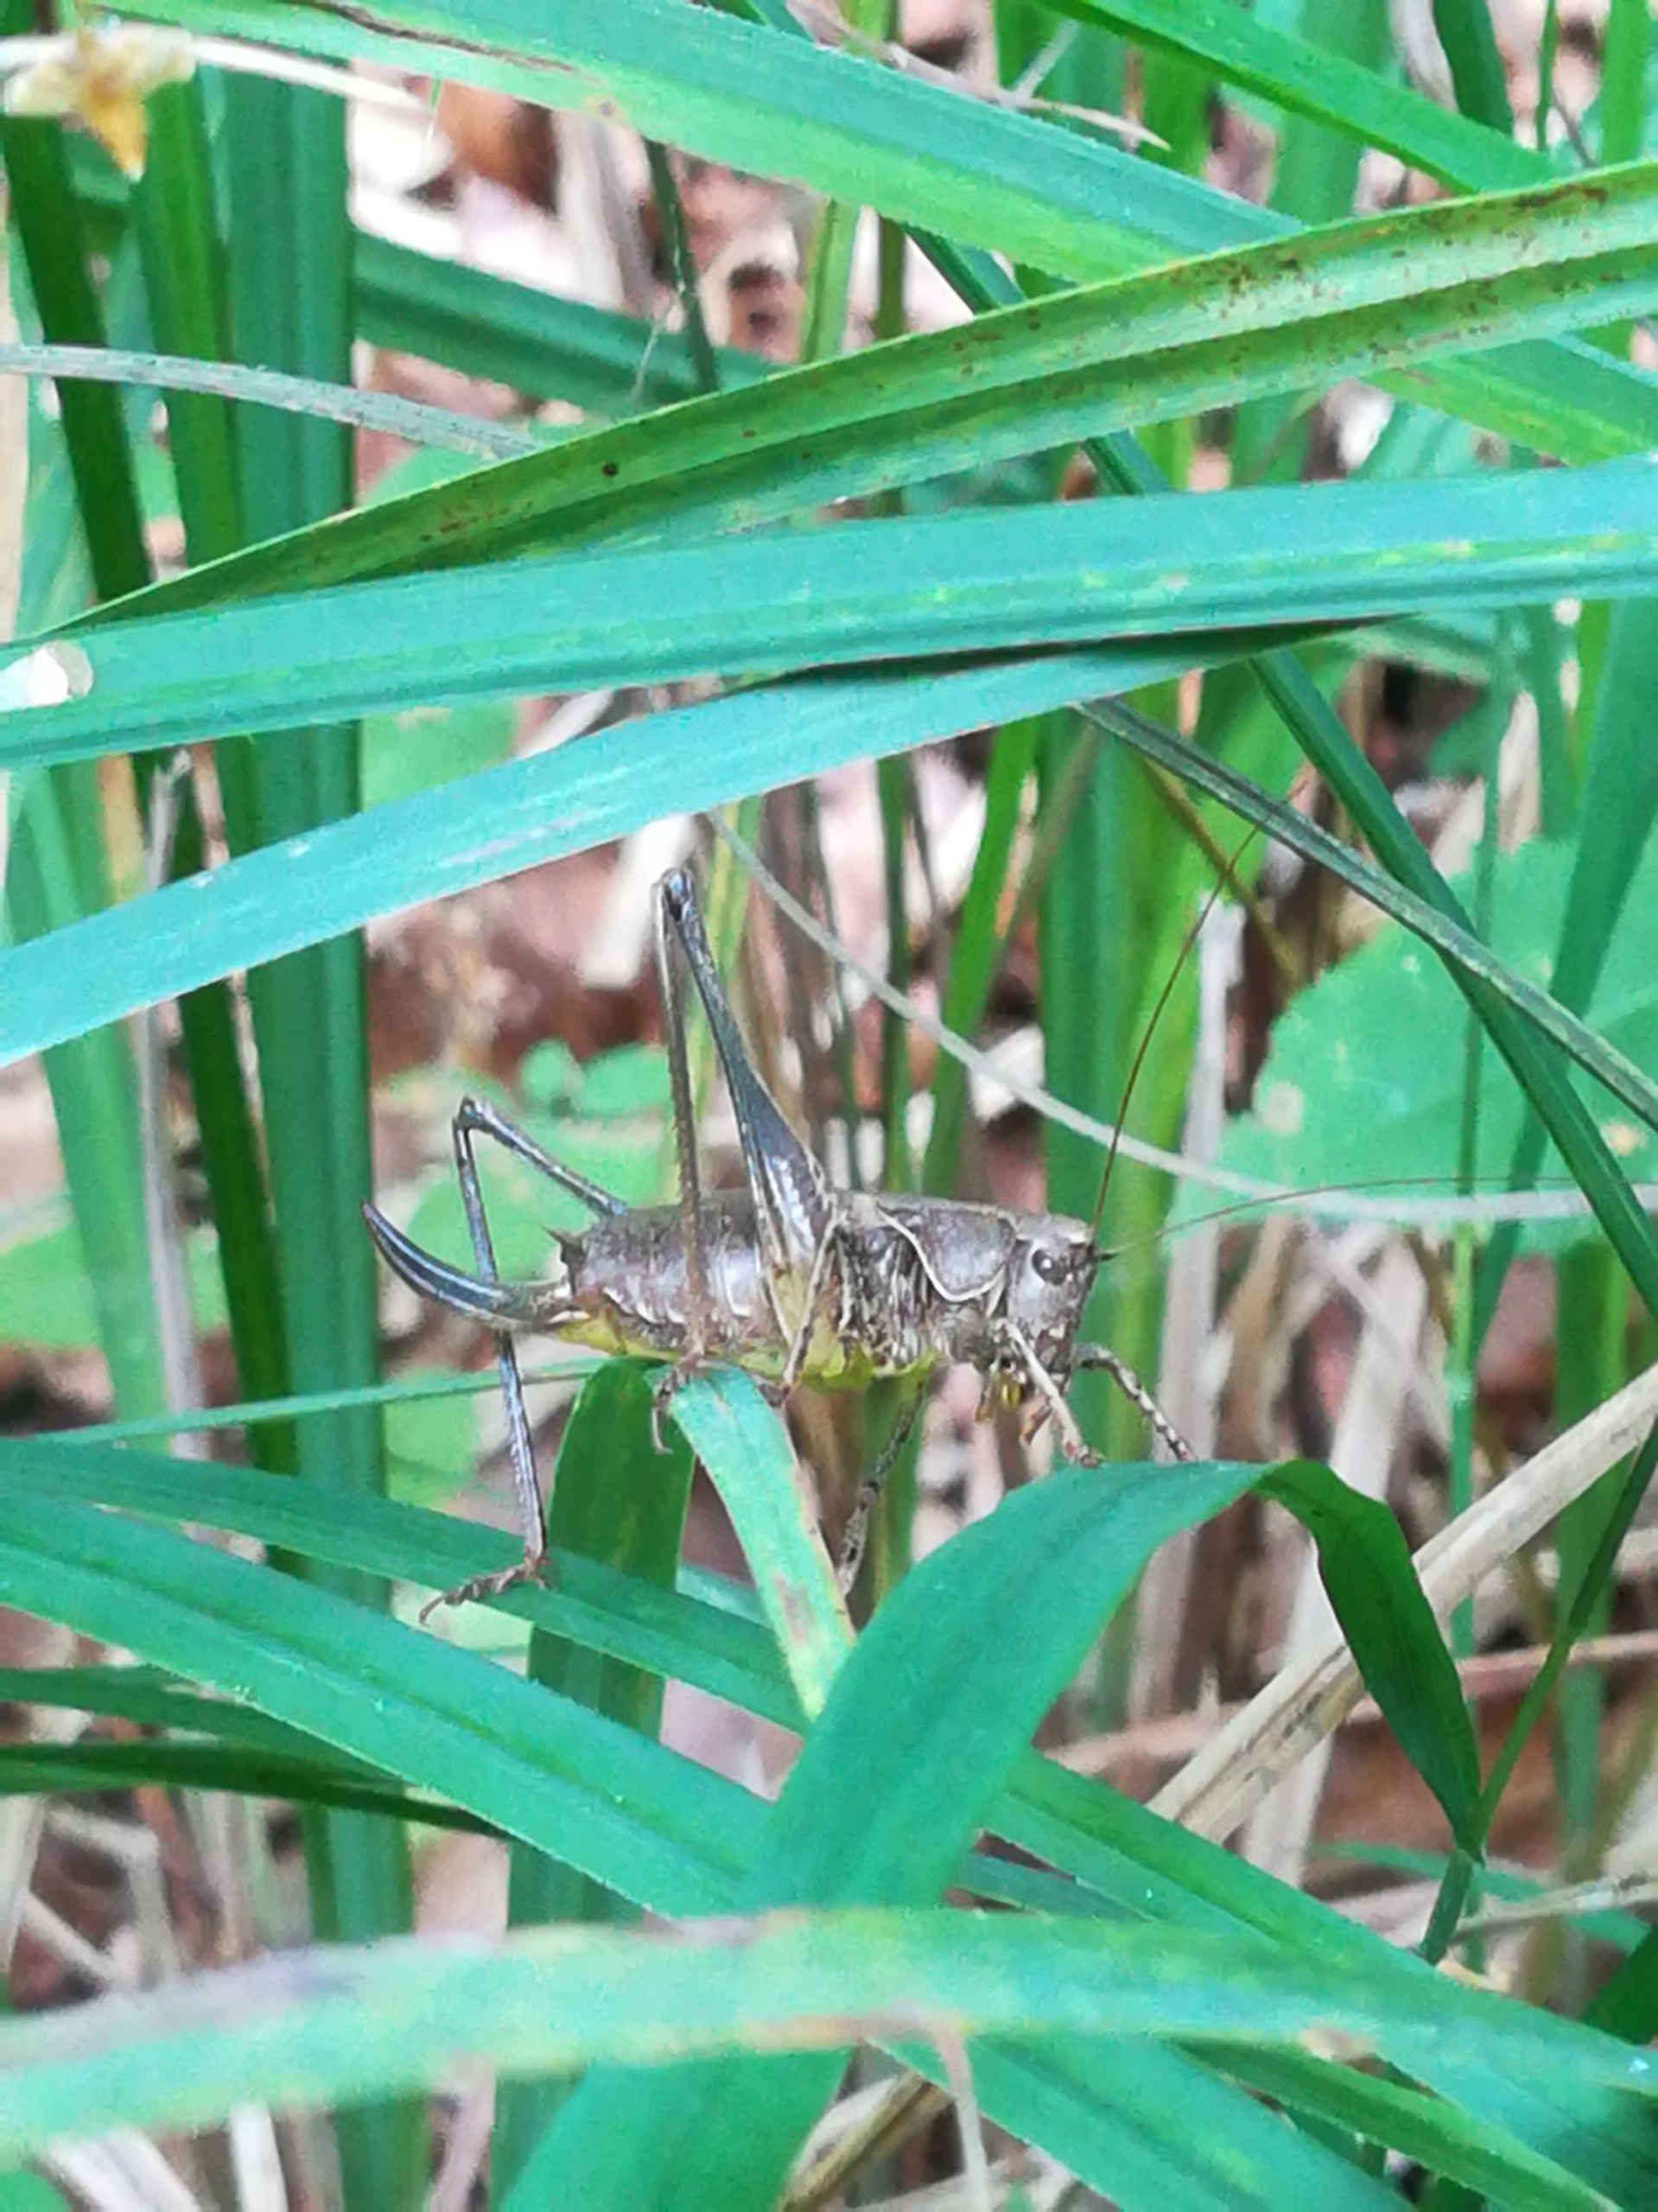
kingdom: Animalia
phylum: Arthropoda
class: Insecta
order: Orthoptera
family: Tettigoniidae
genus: Pholidoptera
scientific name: Pholidoptera griseoaptera
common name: Buskgræshoppe
